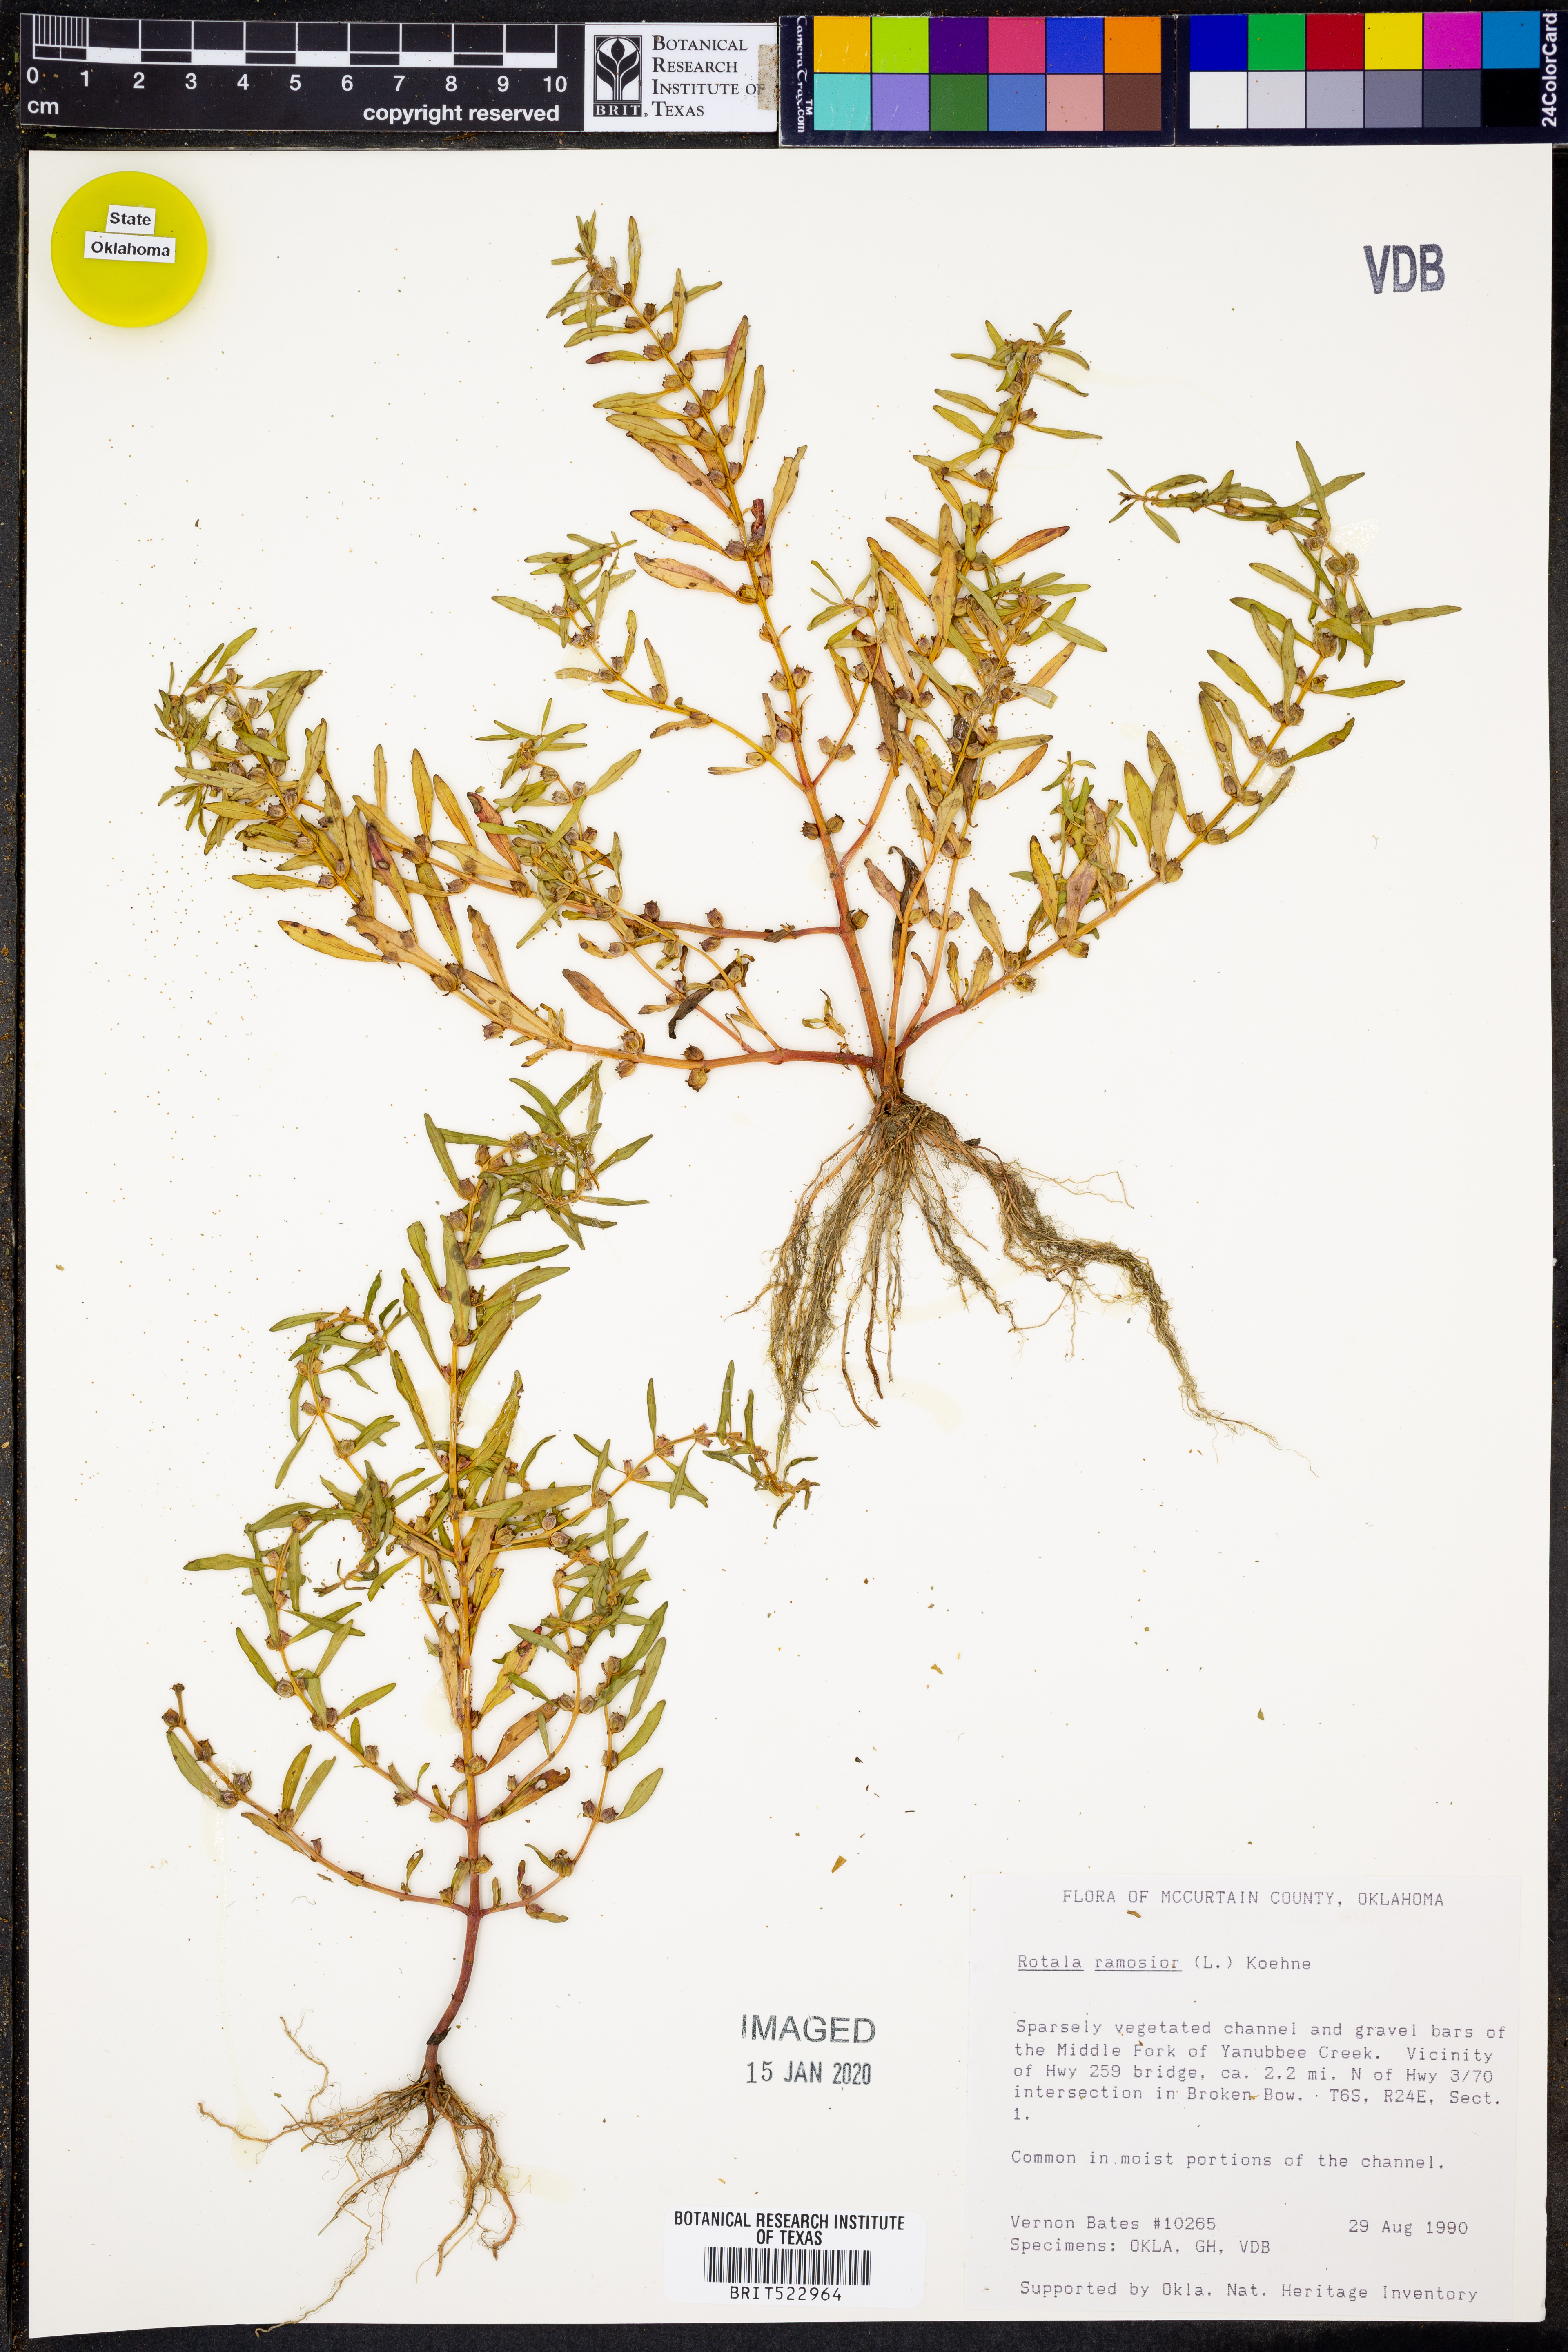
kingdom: Plantae
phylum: Tracheophyta
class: Magnoliopsida
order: Myrtales
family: Lythraceae
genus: Rotala
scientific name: Rotala ramosior
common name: Lowland rotala
